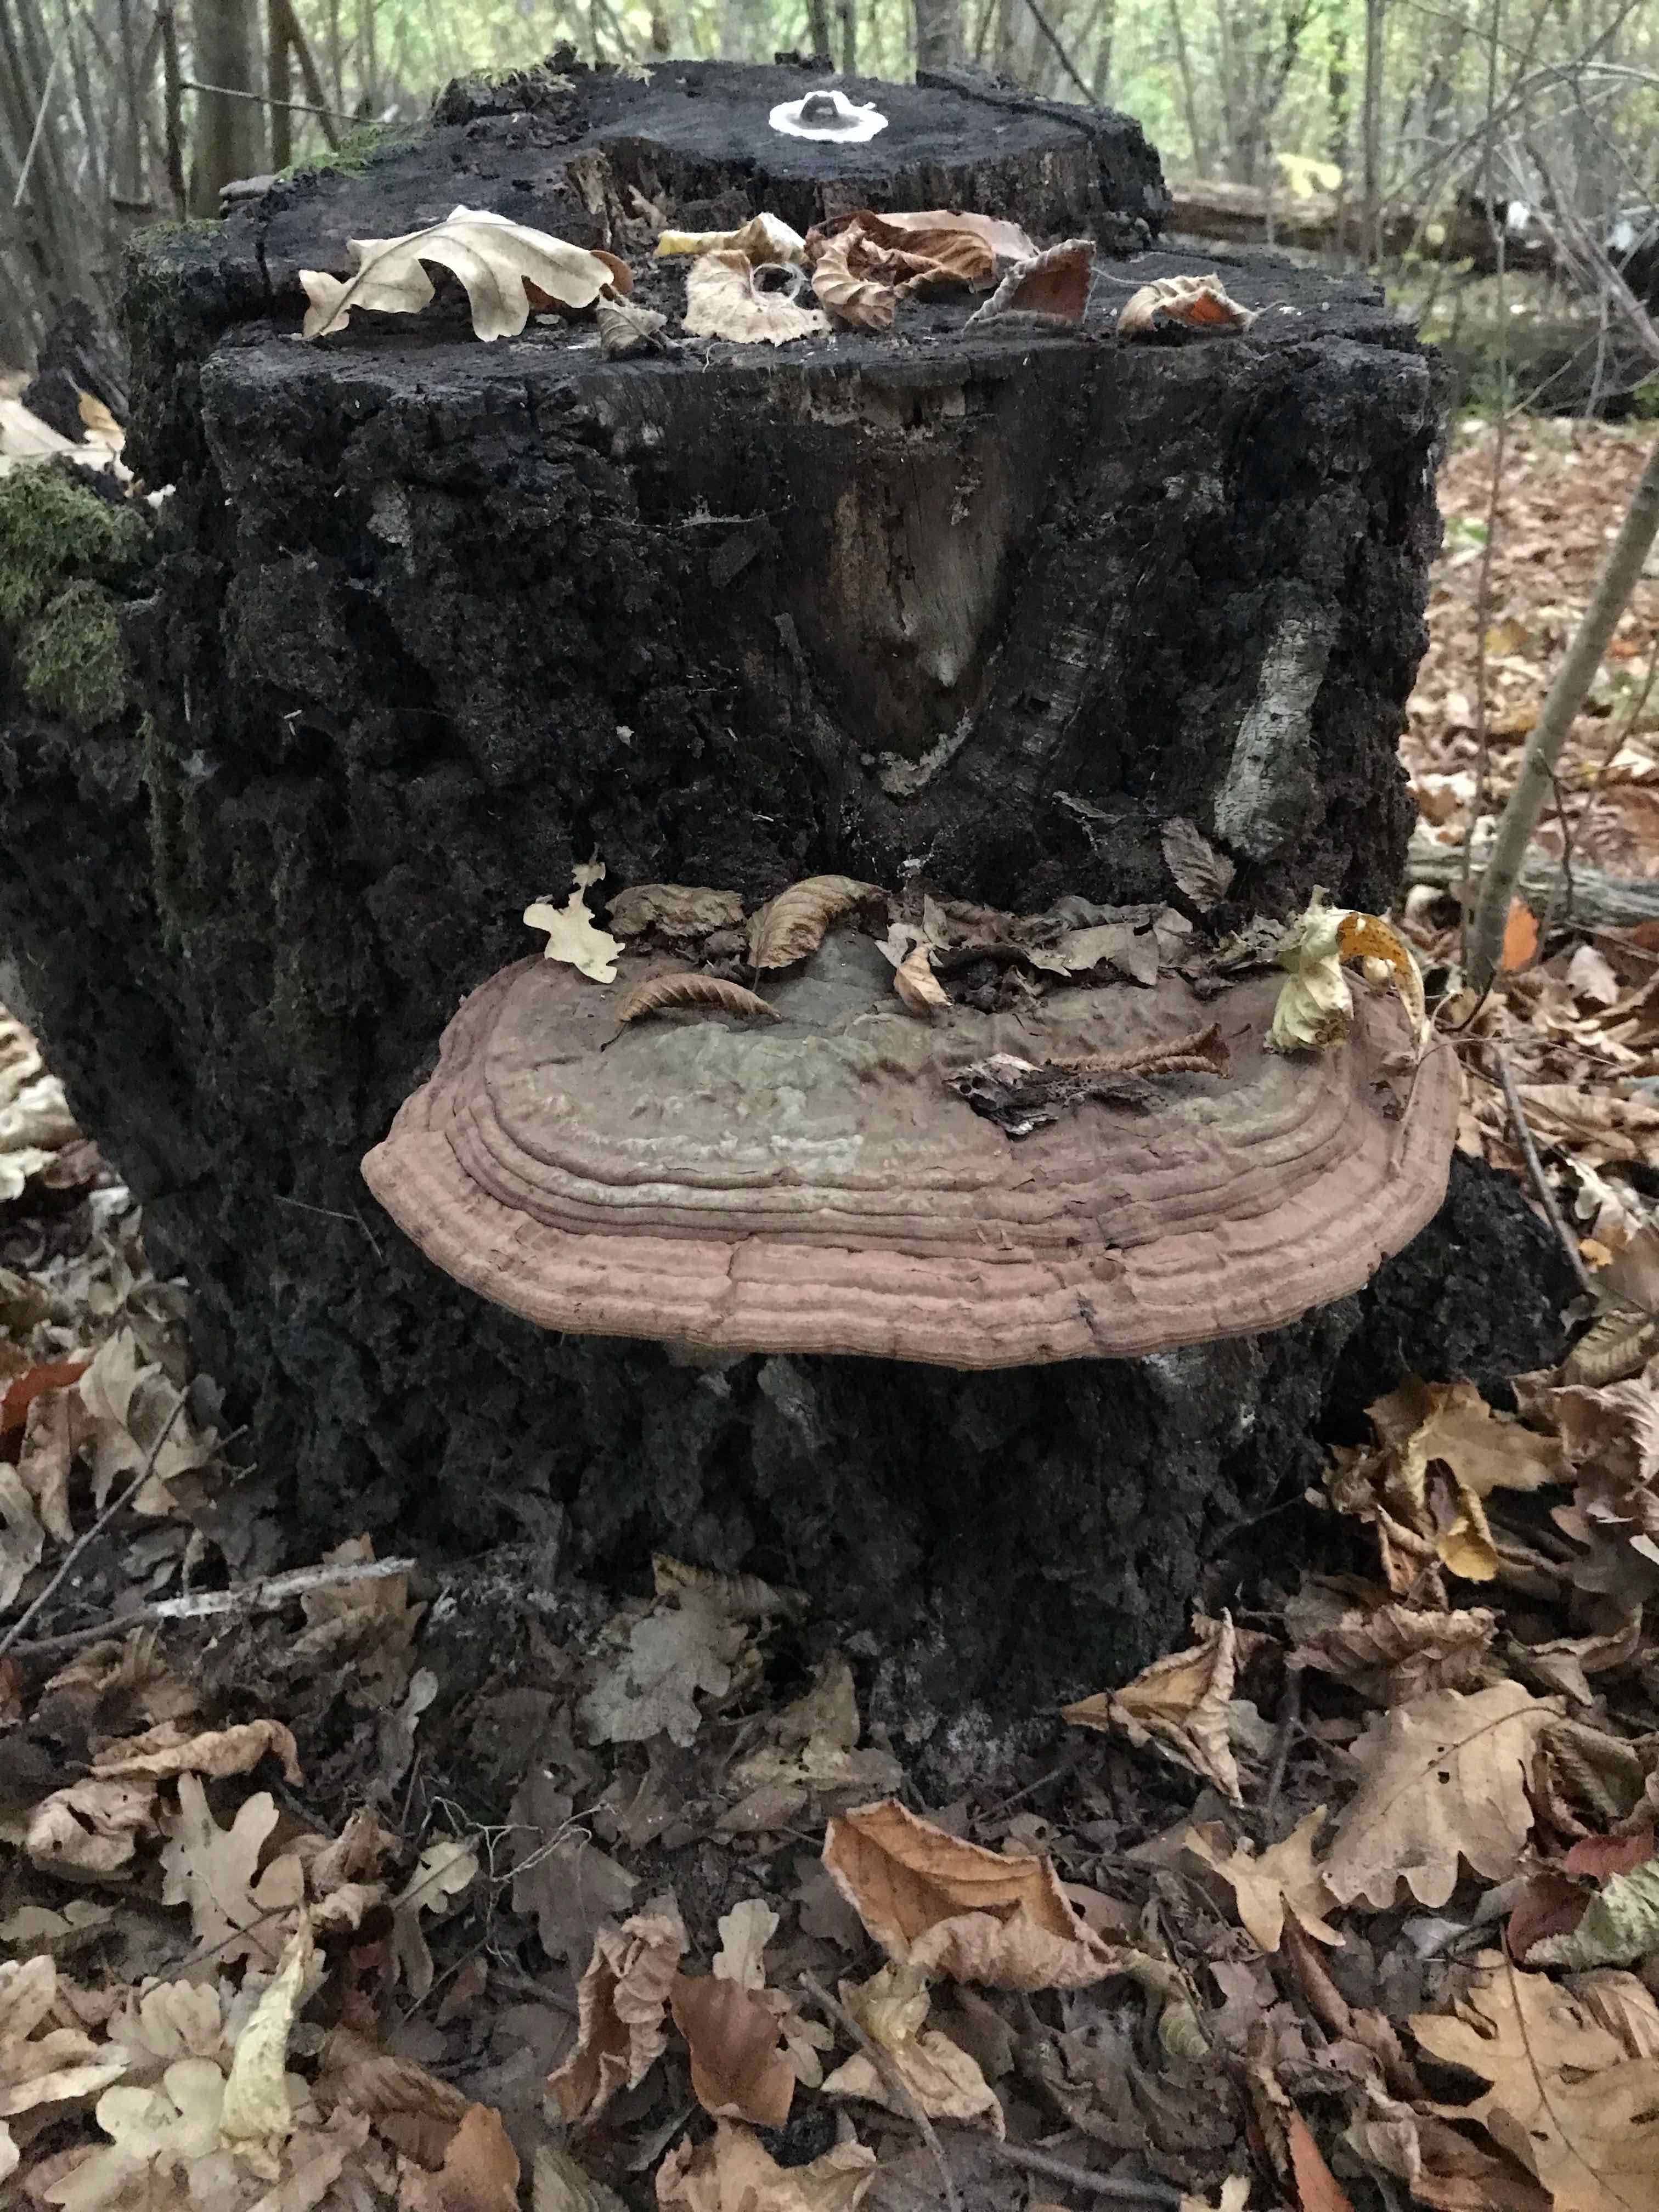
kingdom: Fungi
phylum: Basidiomycota
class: Agaricomycetes
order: Polyporales
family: Polyporaceae
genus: Ganoderma
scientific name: Ganoderma applanatum
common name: flad lakporesvamp
